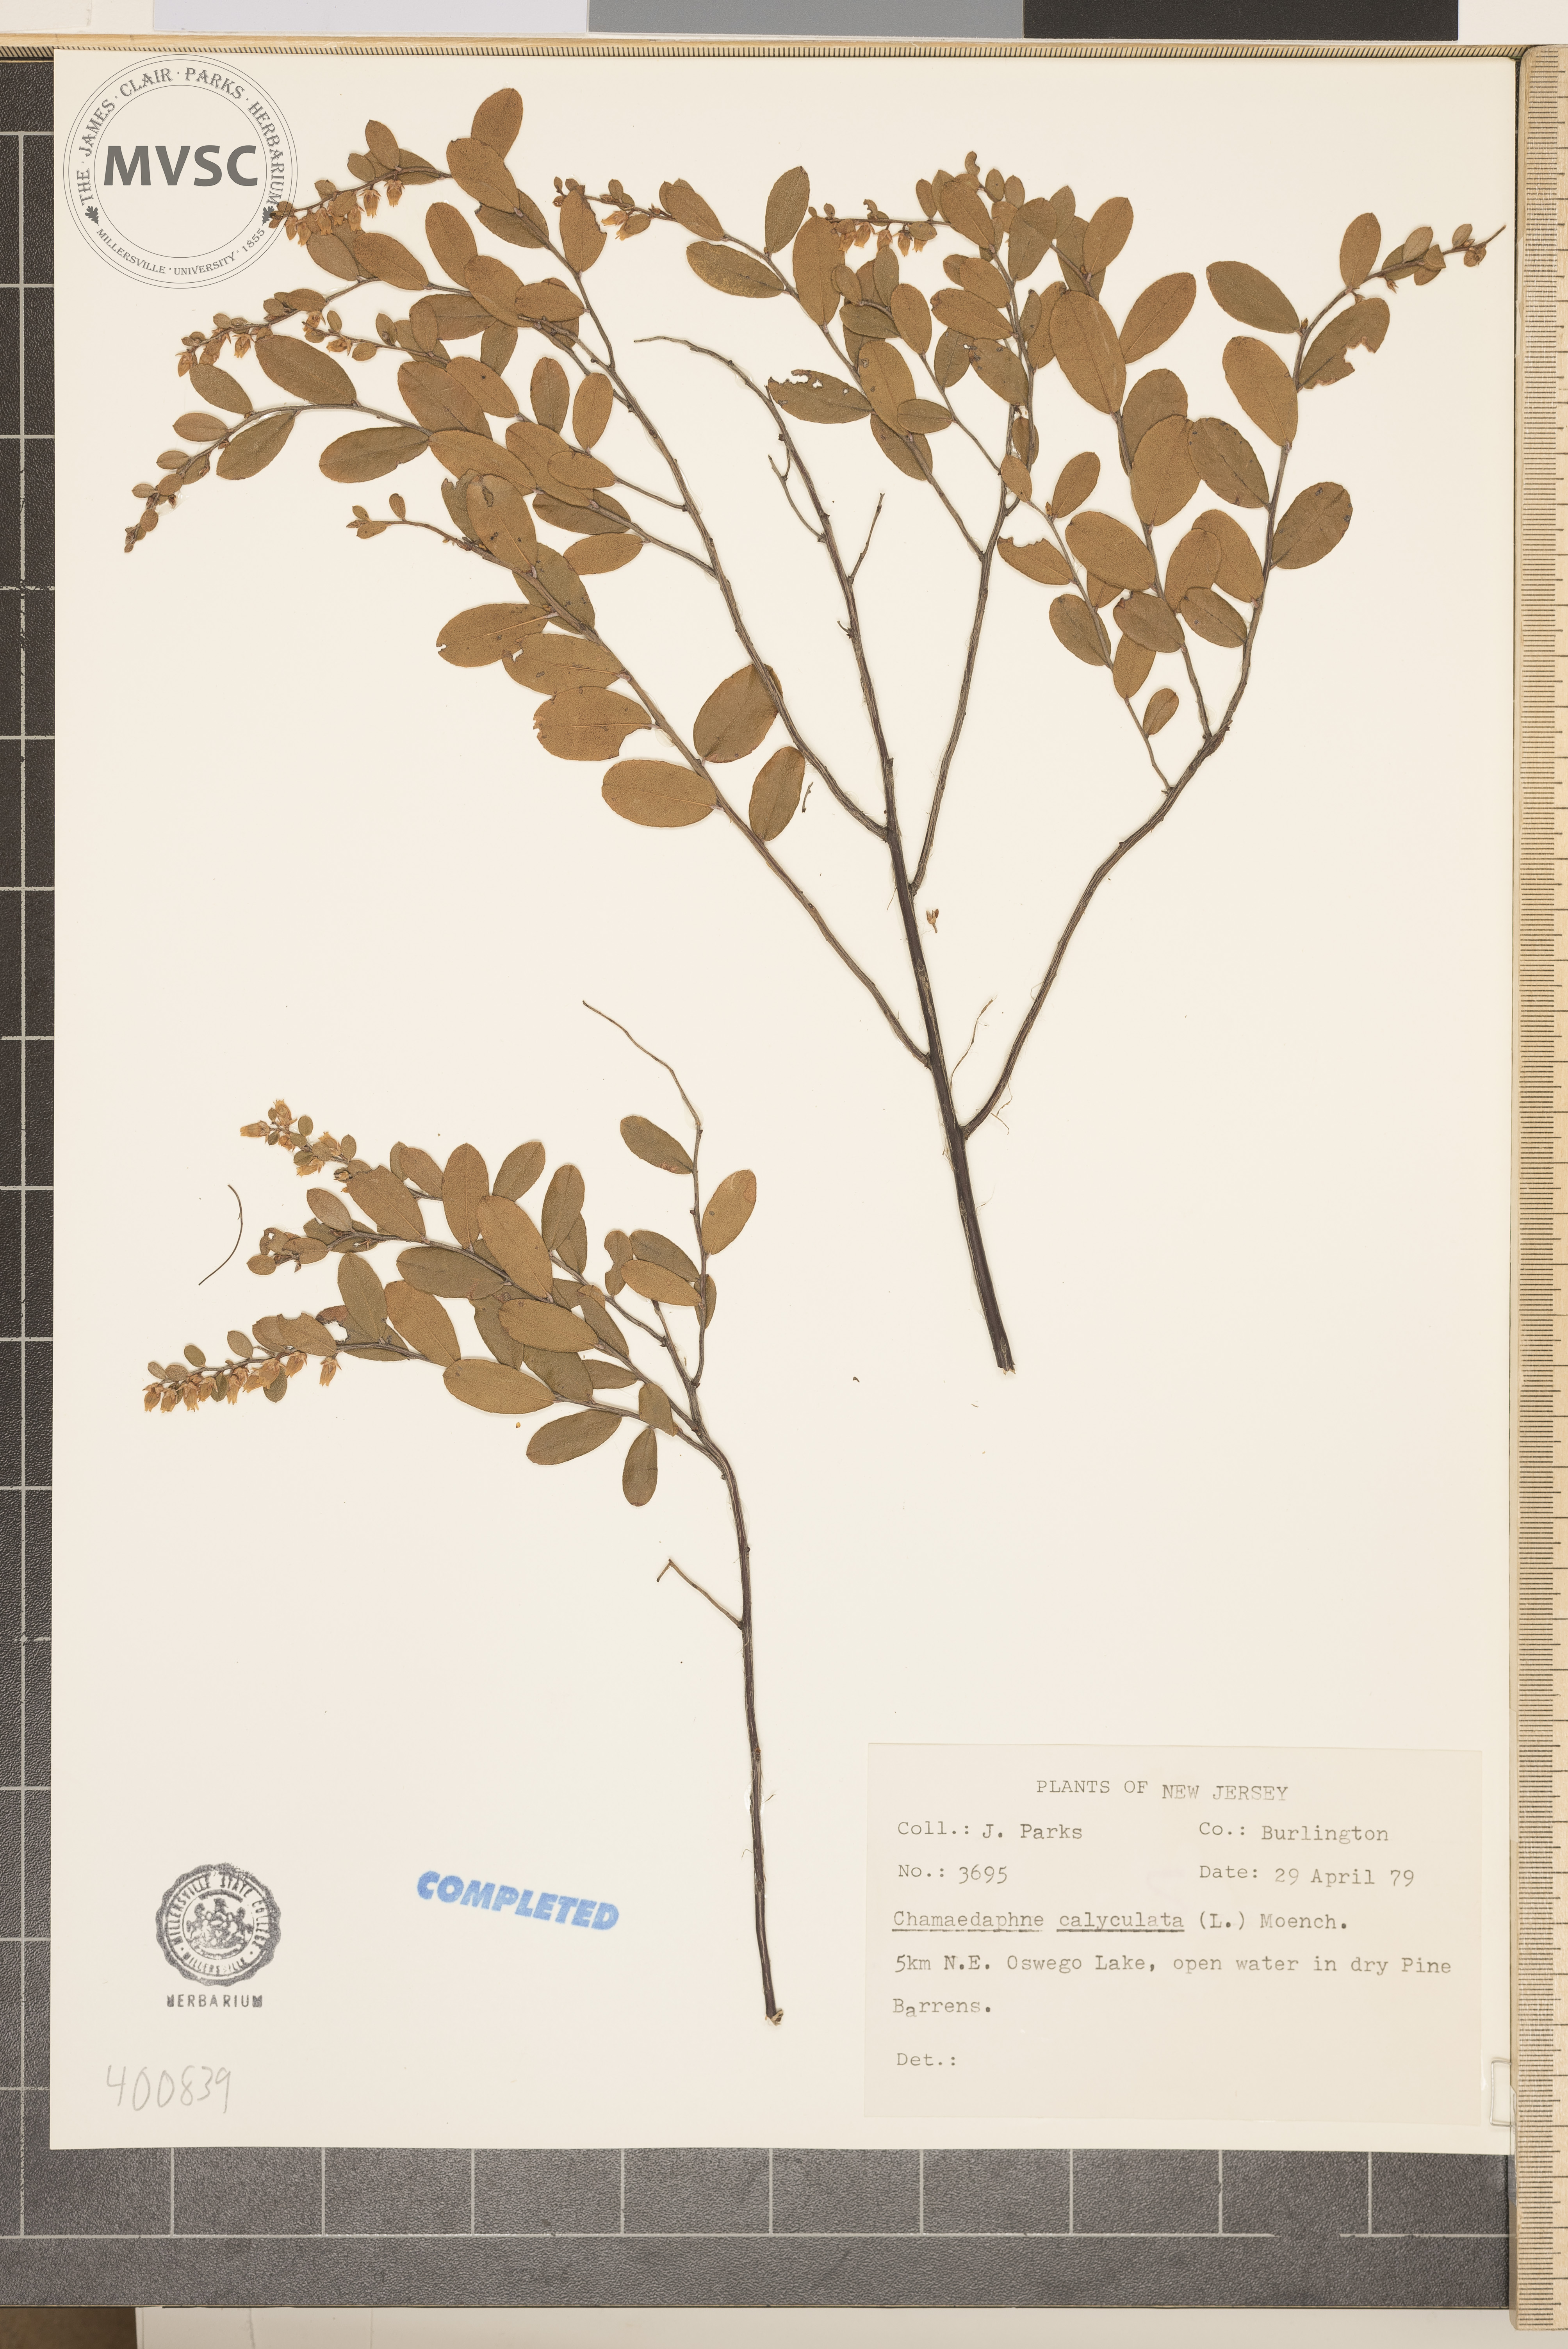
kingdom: Plantae
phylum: Tracheophyta
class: Magnoliopsida
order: Ericales
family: Ericaceae
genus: Chamaedaphne
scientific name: Chamaedaphne calyculata
